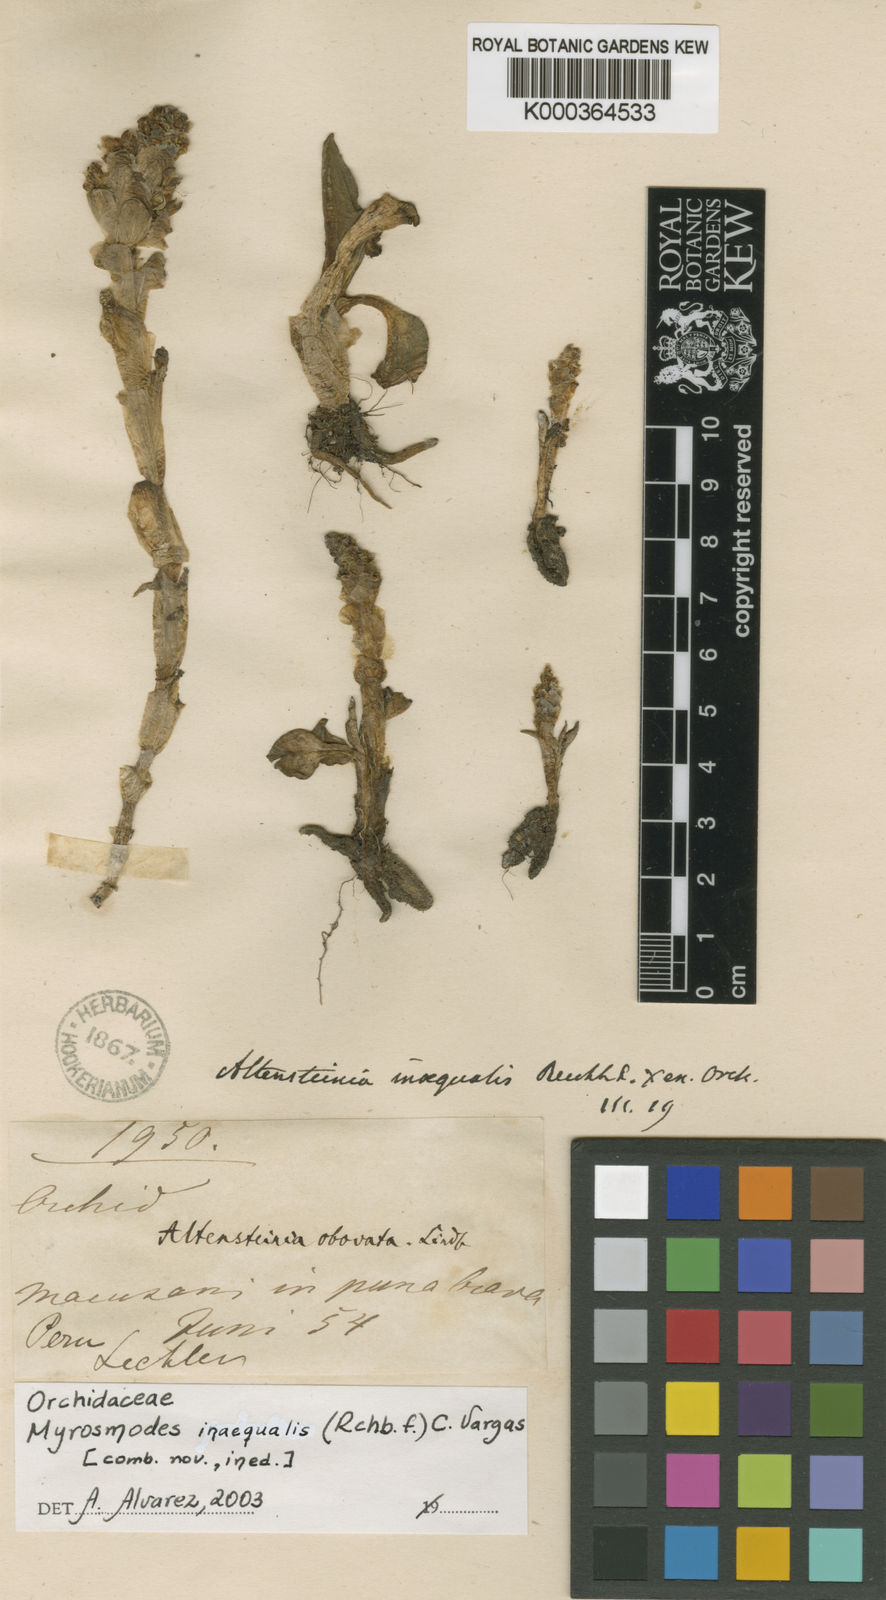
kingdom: Plantae
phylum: Tracheophyta
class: Liliopsida
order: Asparagales
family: Orchidaceae
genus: Myrosmodes
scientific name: Myrosmodes paludosa
